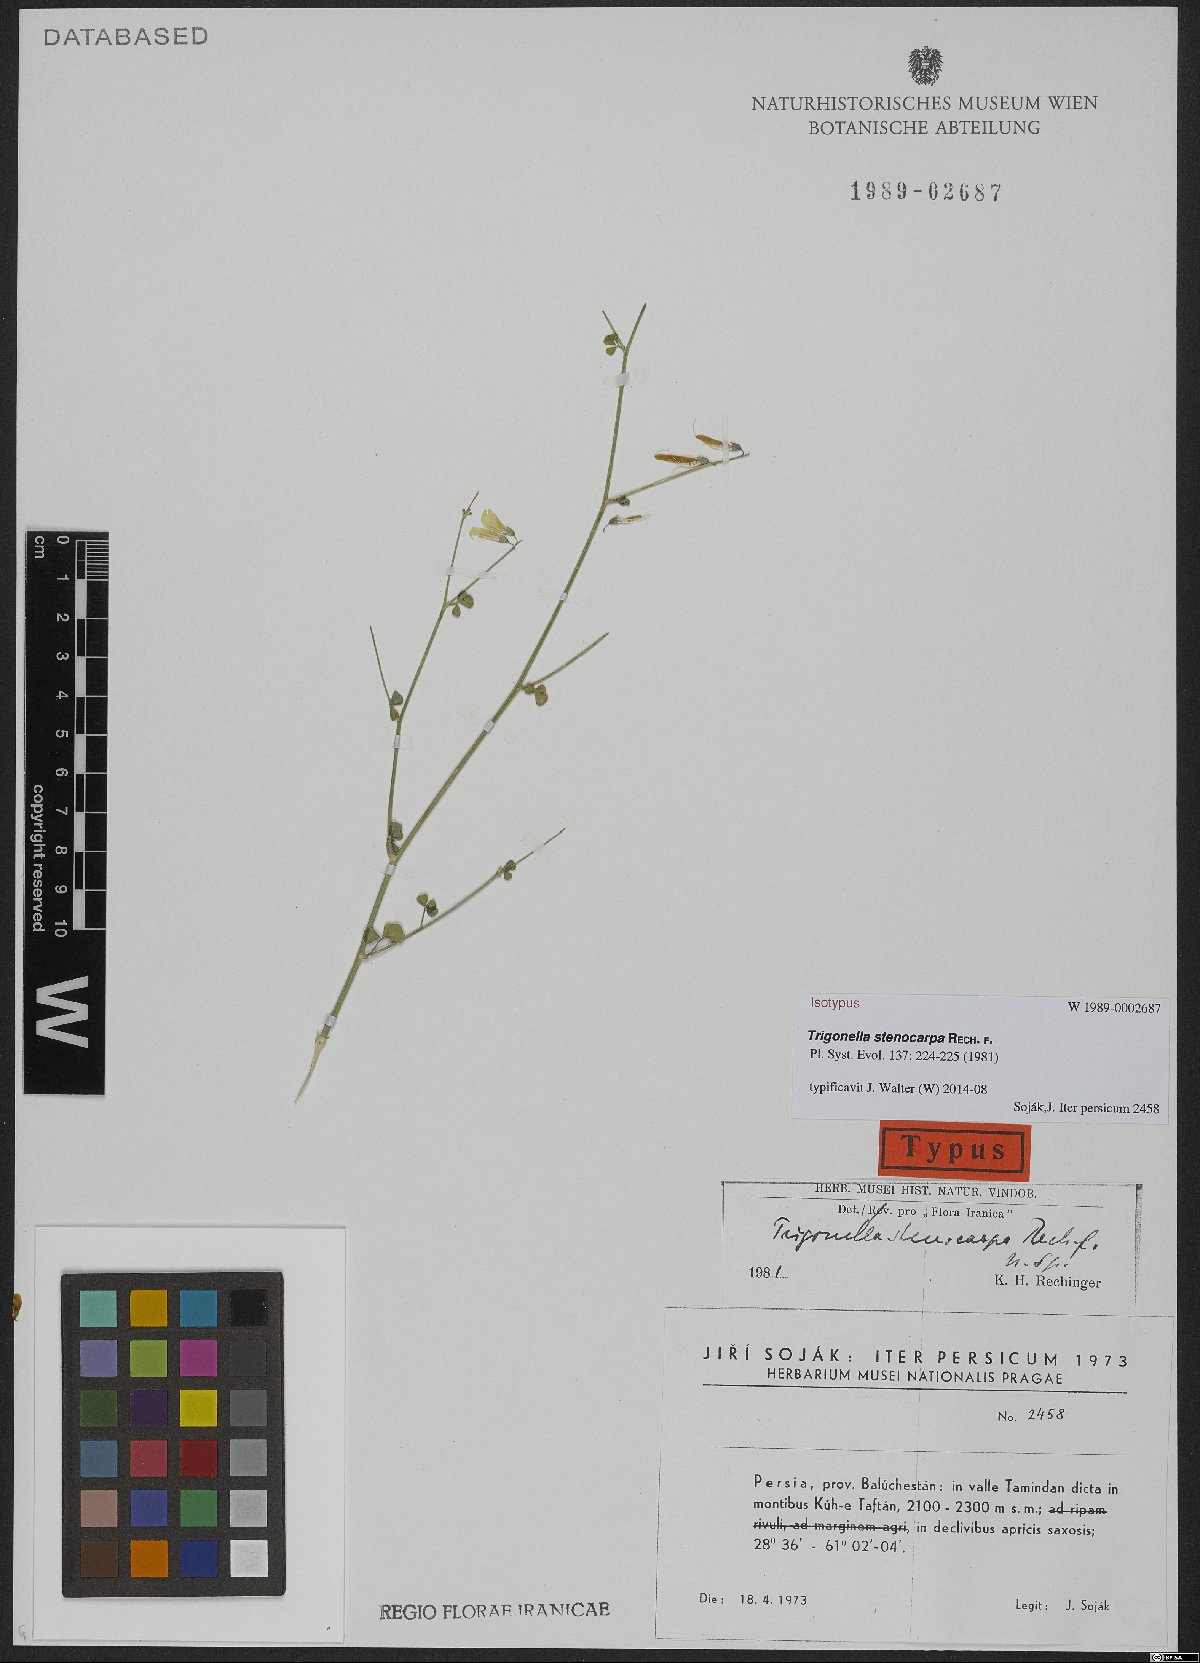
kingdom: Plantae
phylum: Tracheophyta
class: Magnoliopsida
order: Fabales
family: Fabaceae
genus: Trigonella
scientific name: Trigonella stenocarpa
